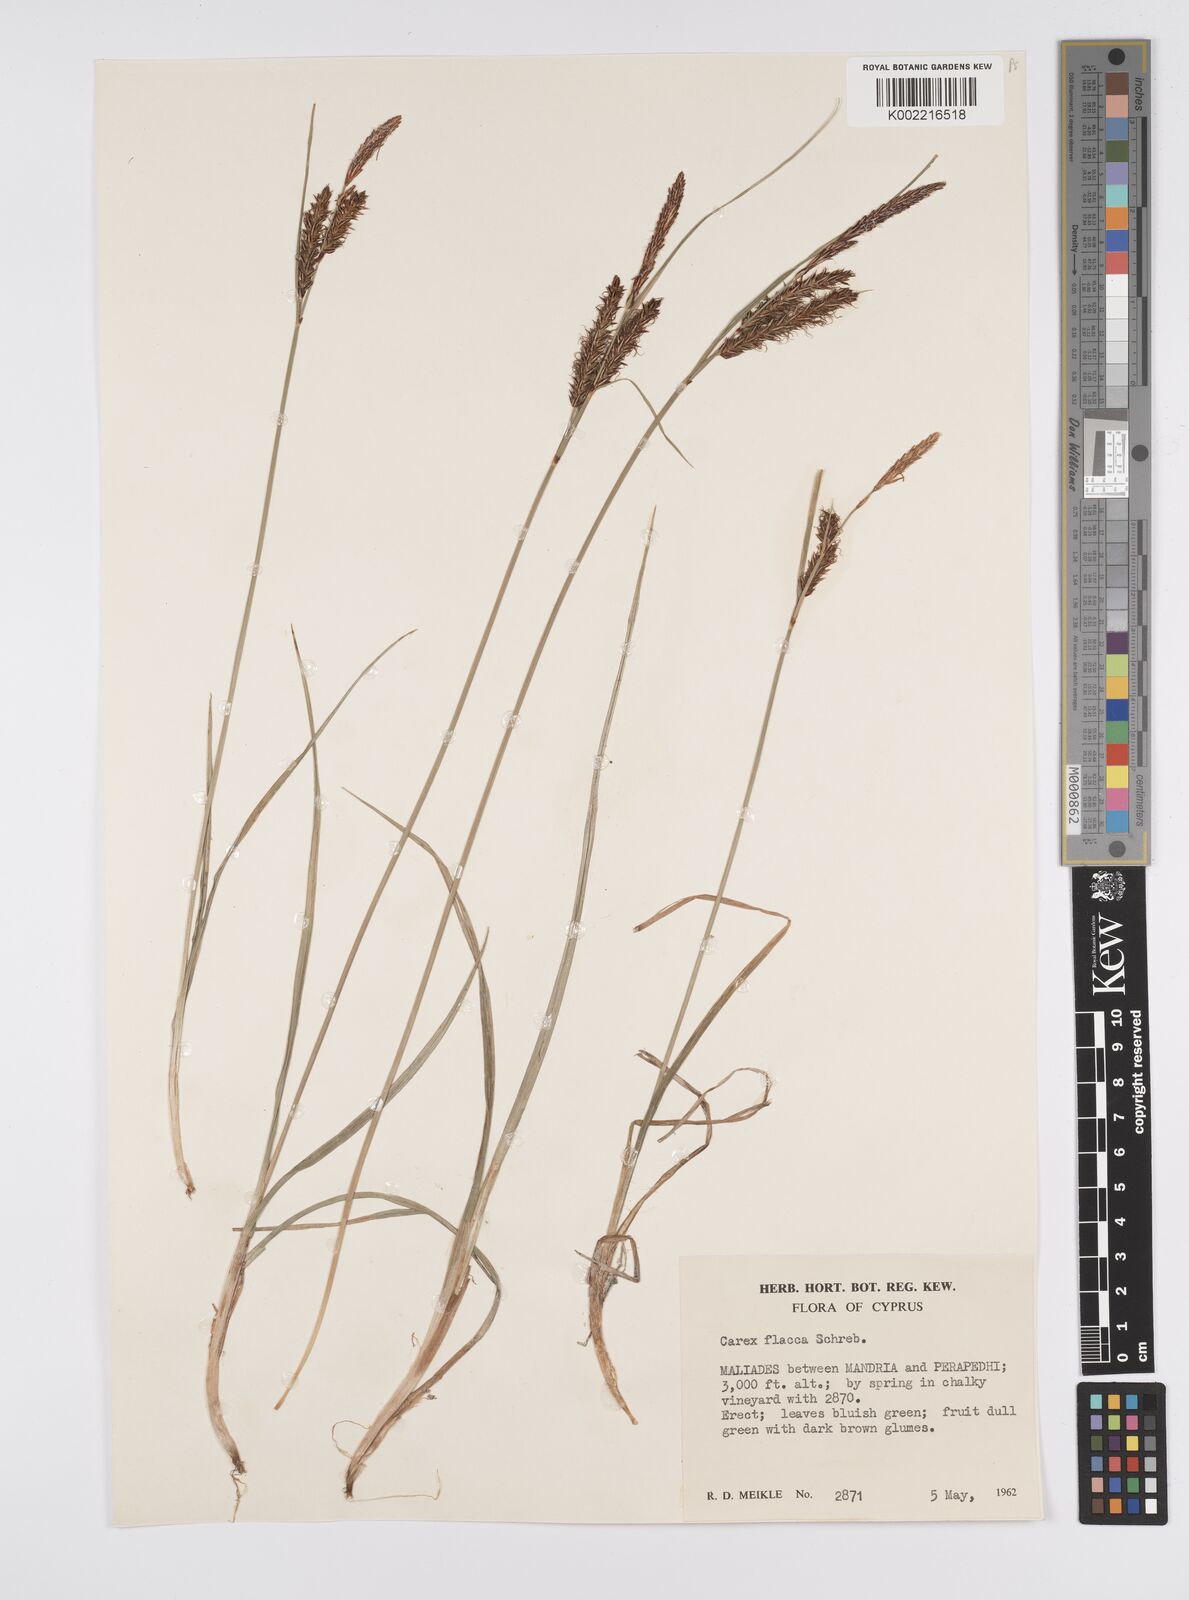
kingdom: Plantae
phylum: Tracheophyta
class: Liliopsida
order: Poales
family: Cyperaceae
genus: Carex
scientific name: Carex flacca
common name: Glaucous sedge
